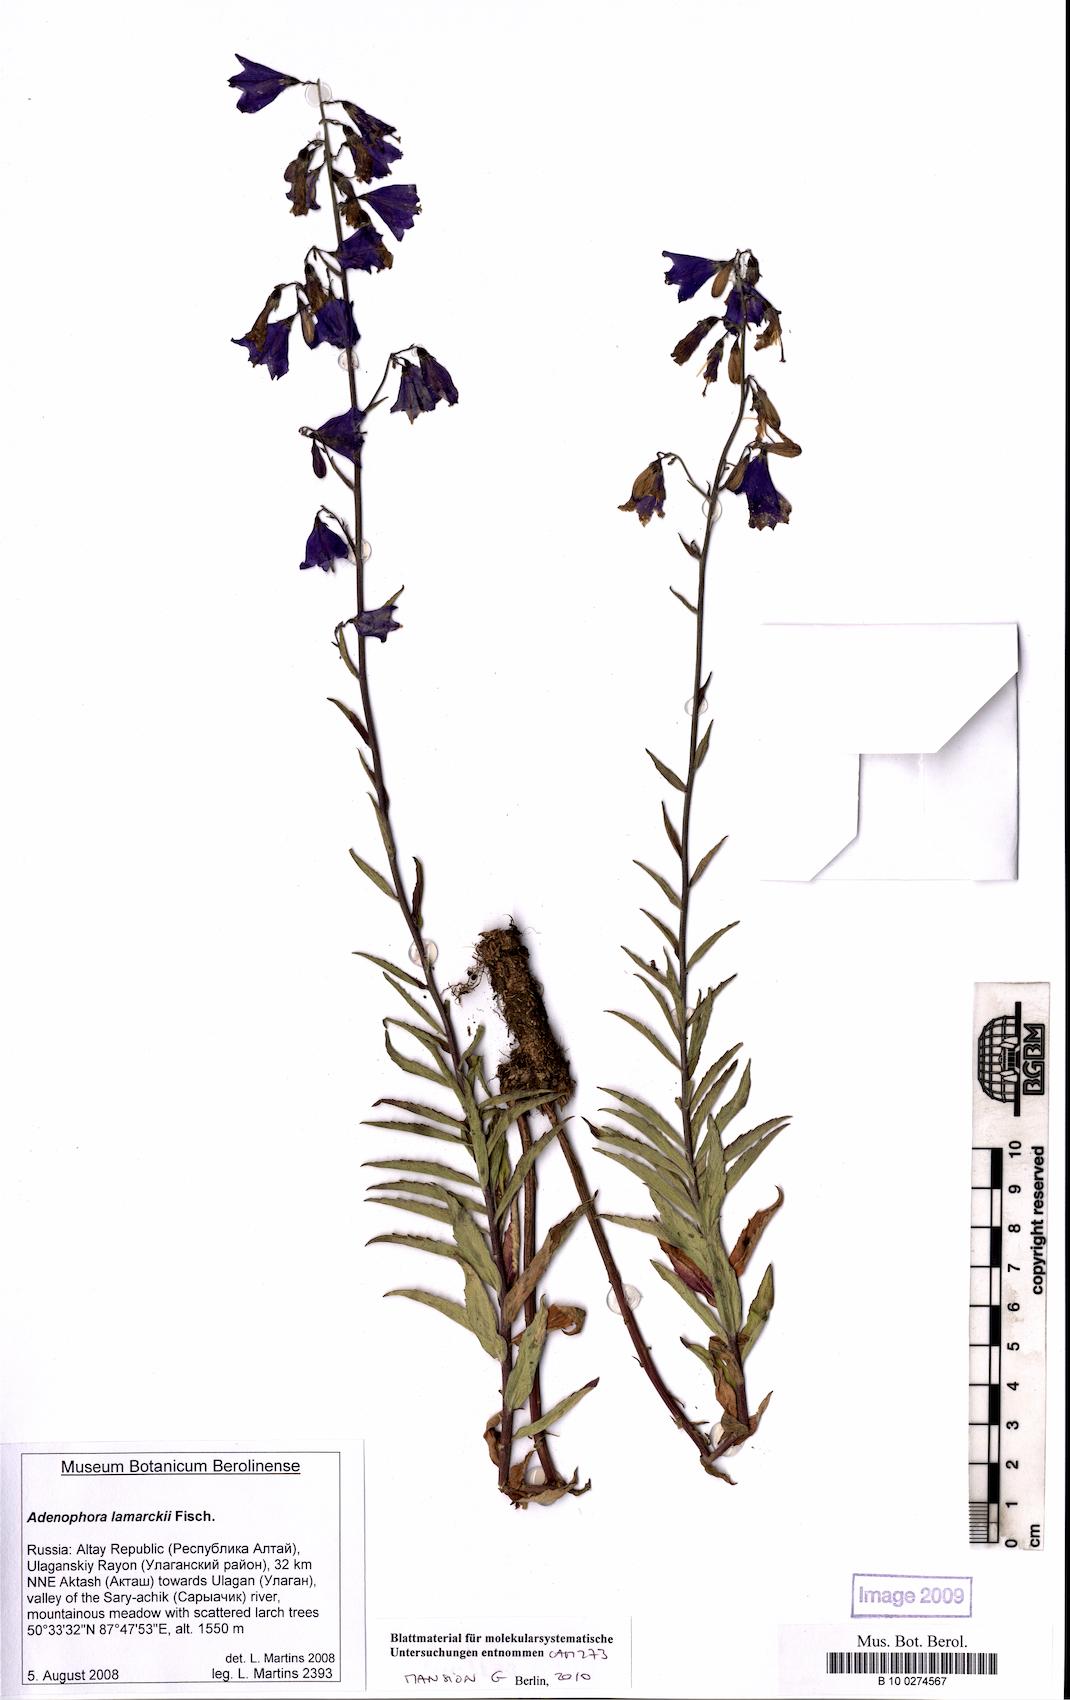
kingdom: Plantae
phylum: Tracheophyta
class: Magnoliopsida
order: Asterales
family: Campanulaceae
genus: Adenophora
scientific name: Adenophora lamarkii
